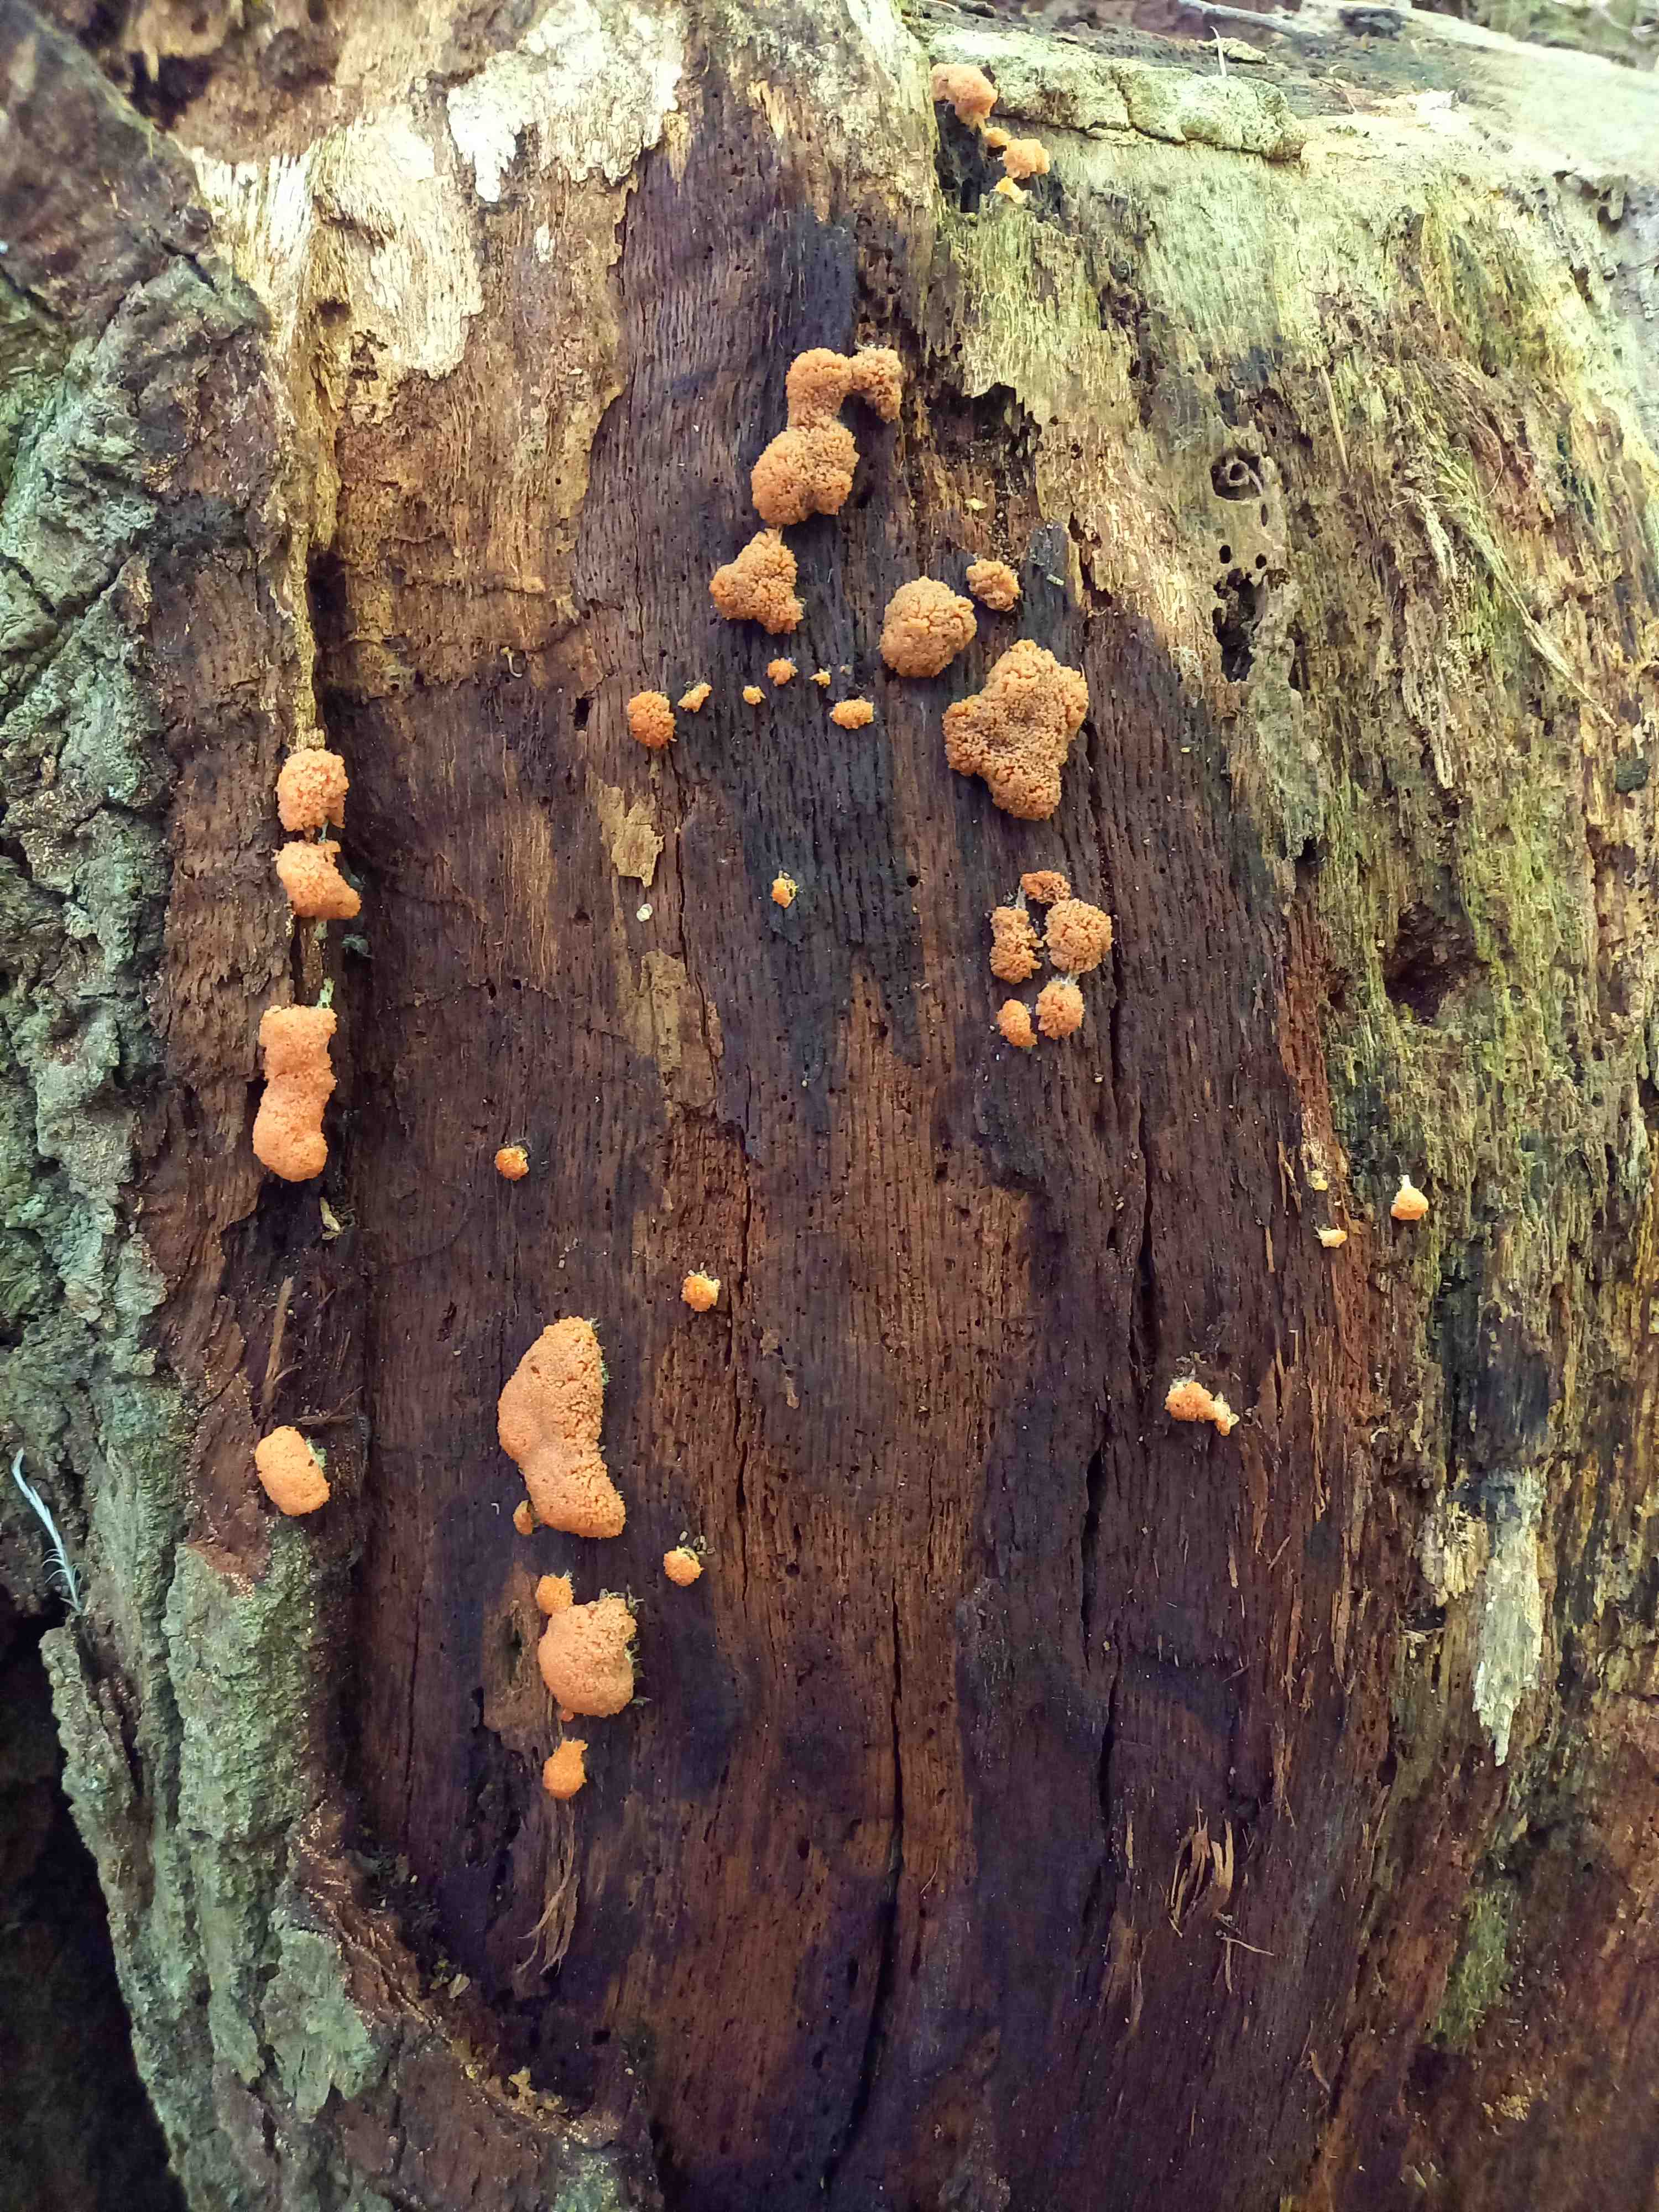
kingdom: Protozoa
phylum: Mycetozoa
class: Myxomycetes
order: Cribrariales
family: Tubiferaceae
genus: Tubifera
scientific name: Tubifera ferruginosa
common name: kanel-støvrør
